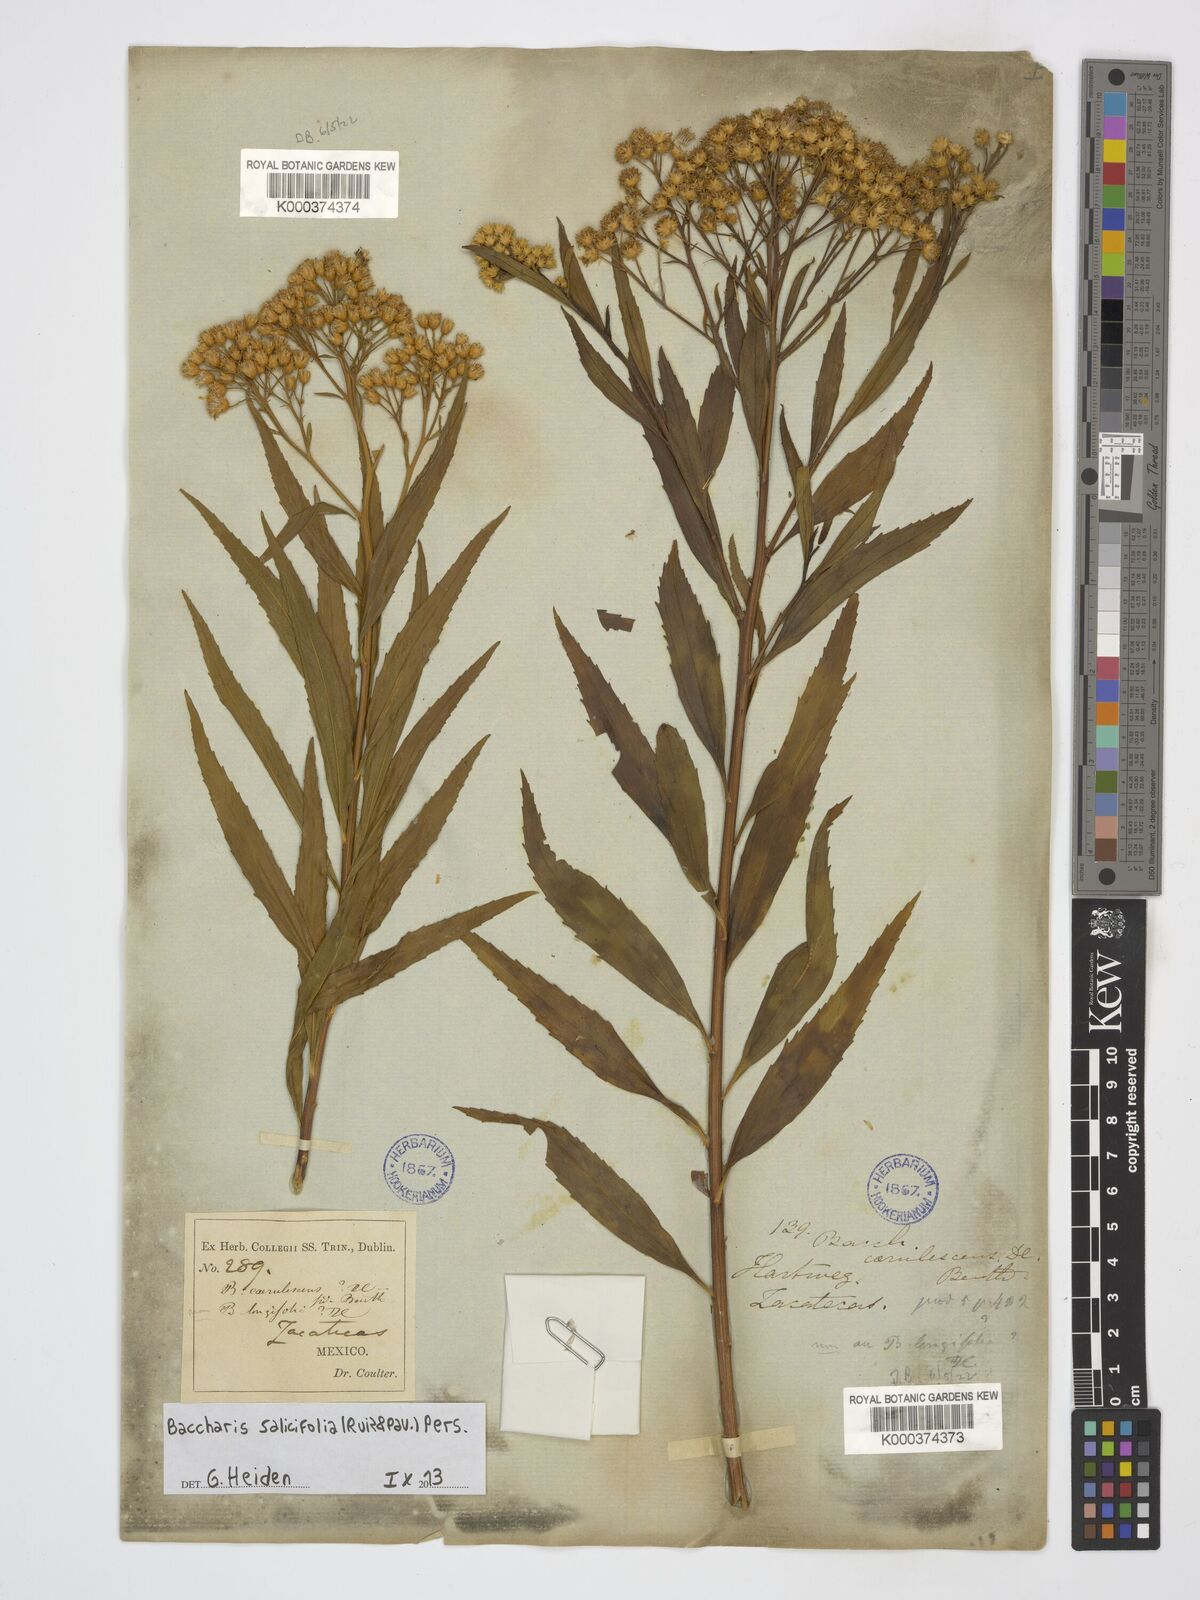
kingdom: Plantae
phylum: Tracheophyta
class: Magnoliopsida
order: Asterales
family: Asteraceae
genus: Baccharis
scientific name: Baccharis salicifolia
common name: Sticky baccharis
